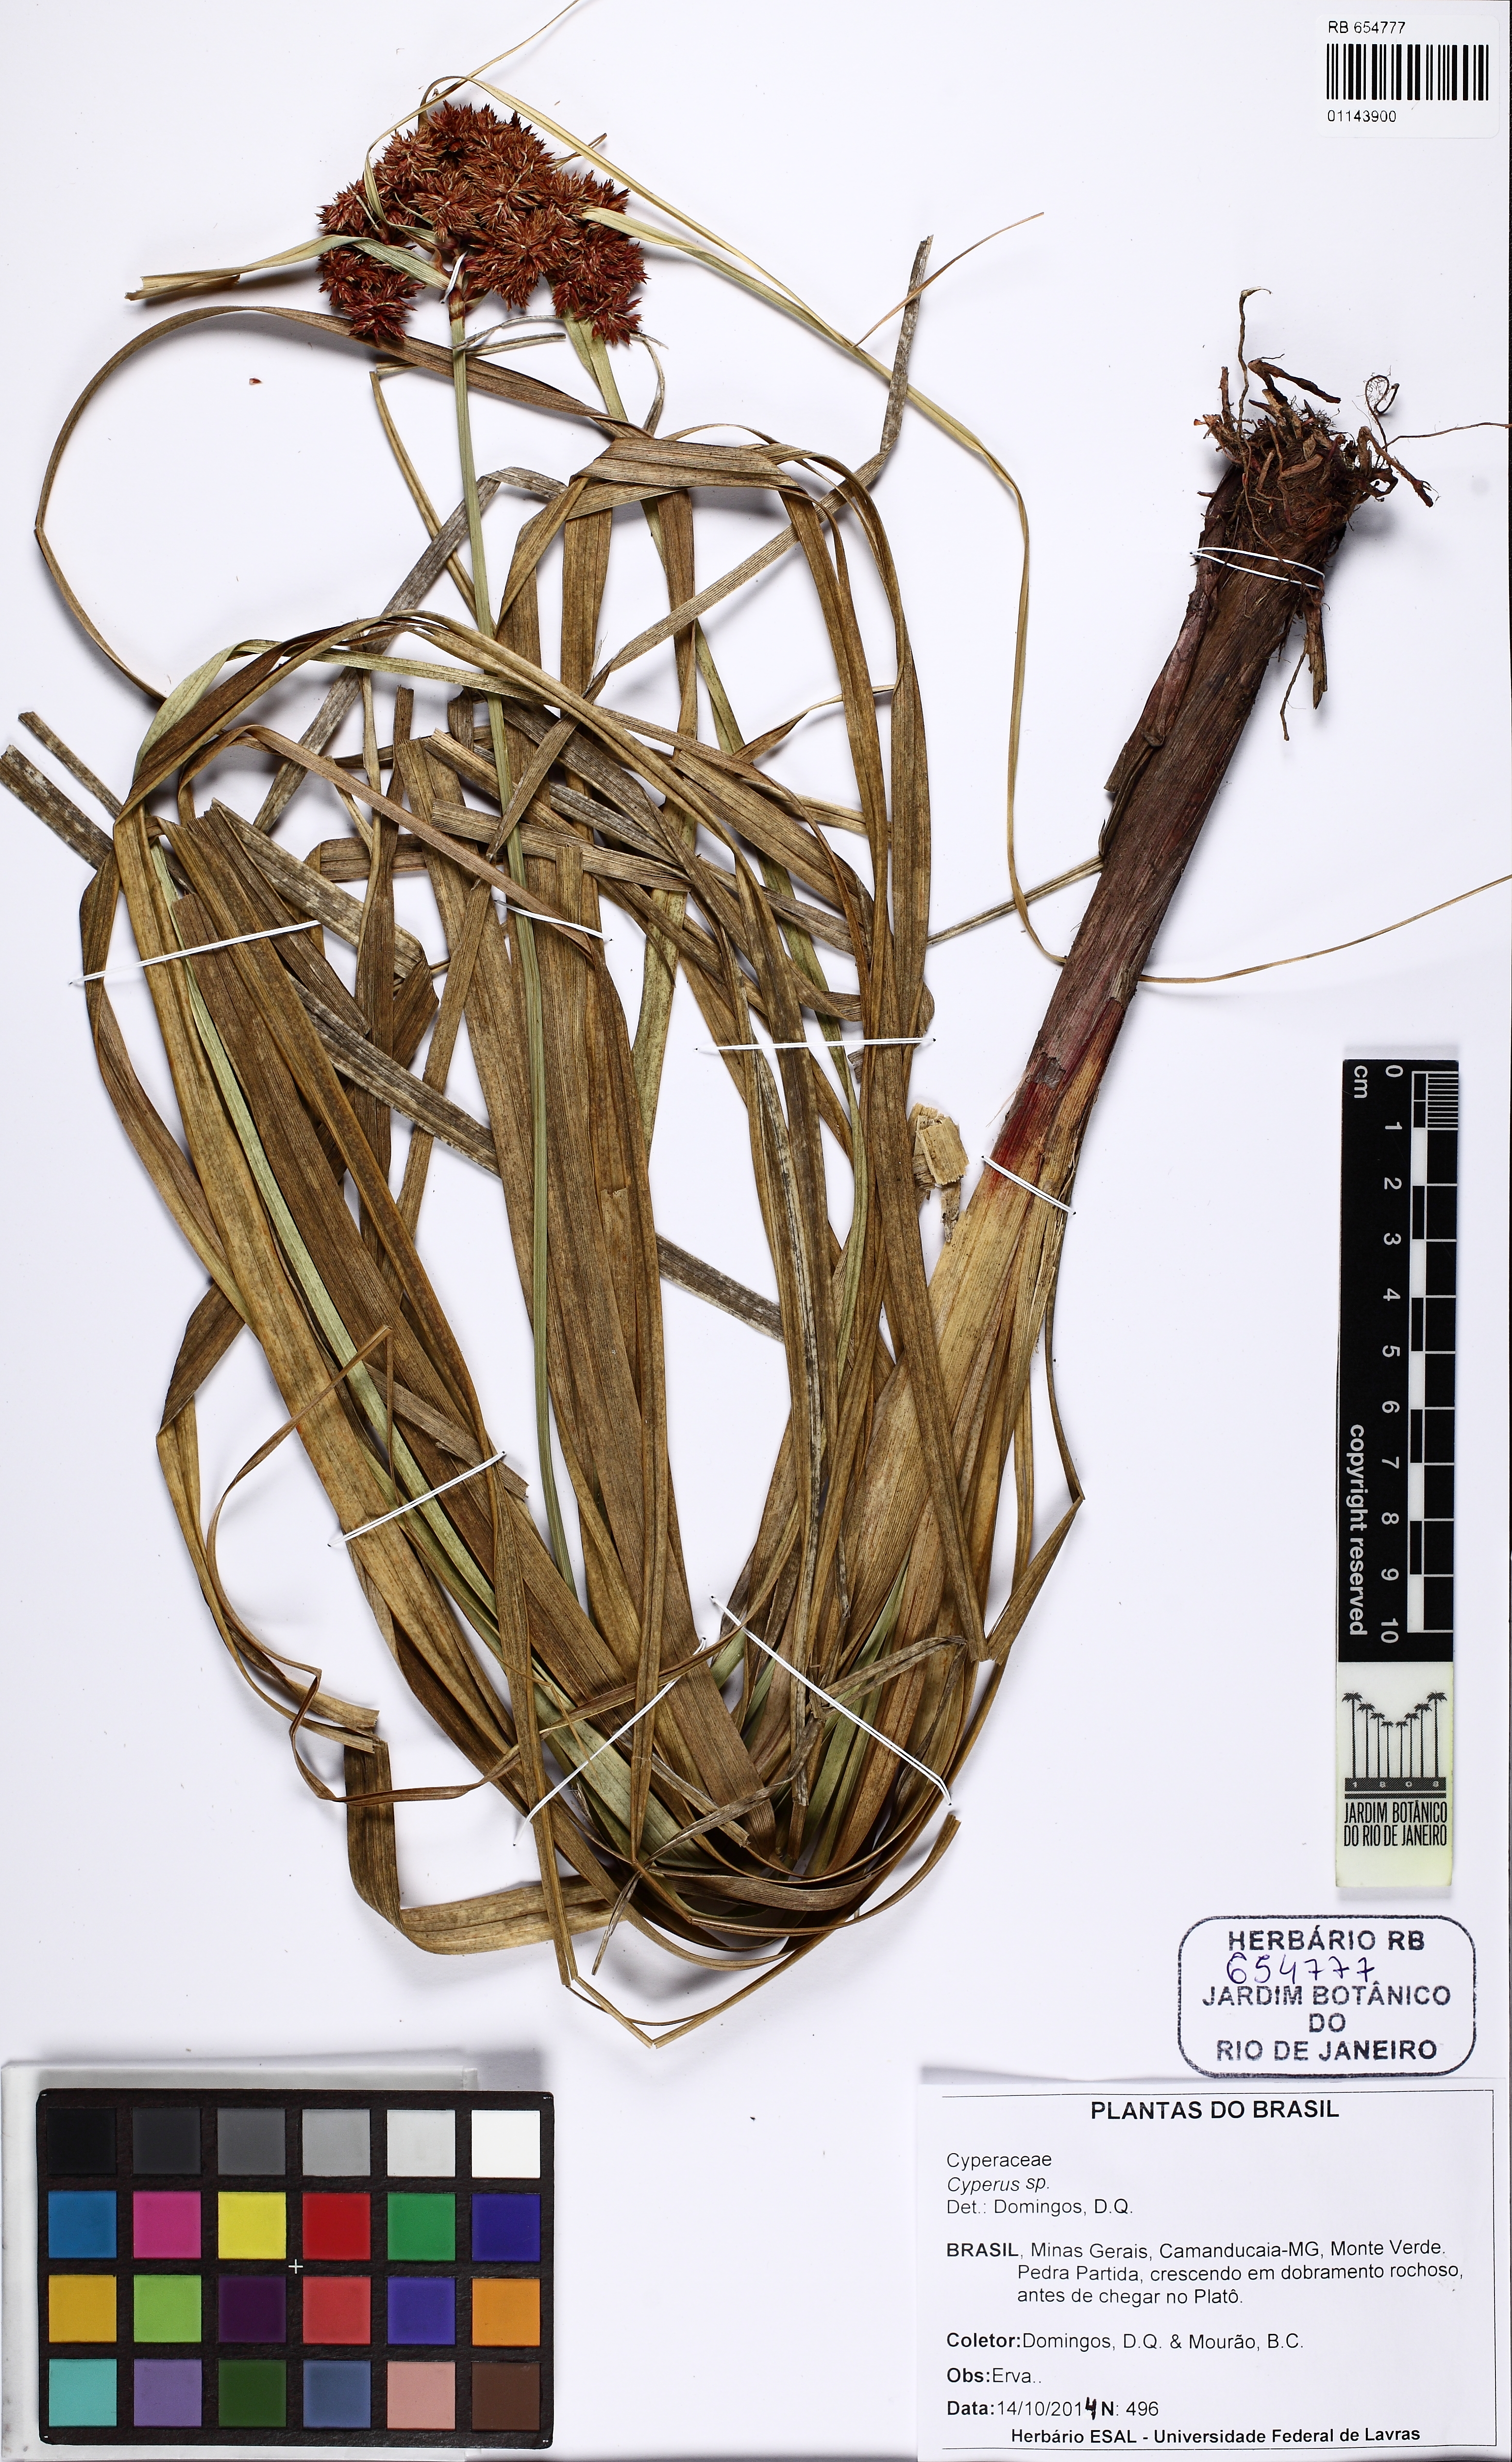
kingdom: Plantae
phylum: Tracheophyta
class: Liliopsida
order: Poales
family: Cyperaceae
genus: Cyperus
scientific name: Cyperus tabina
